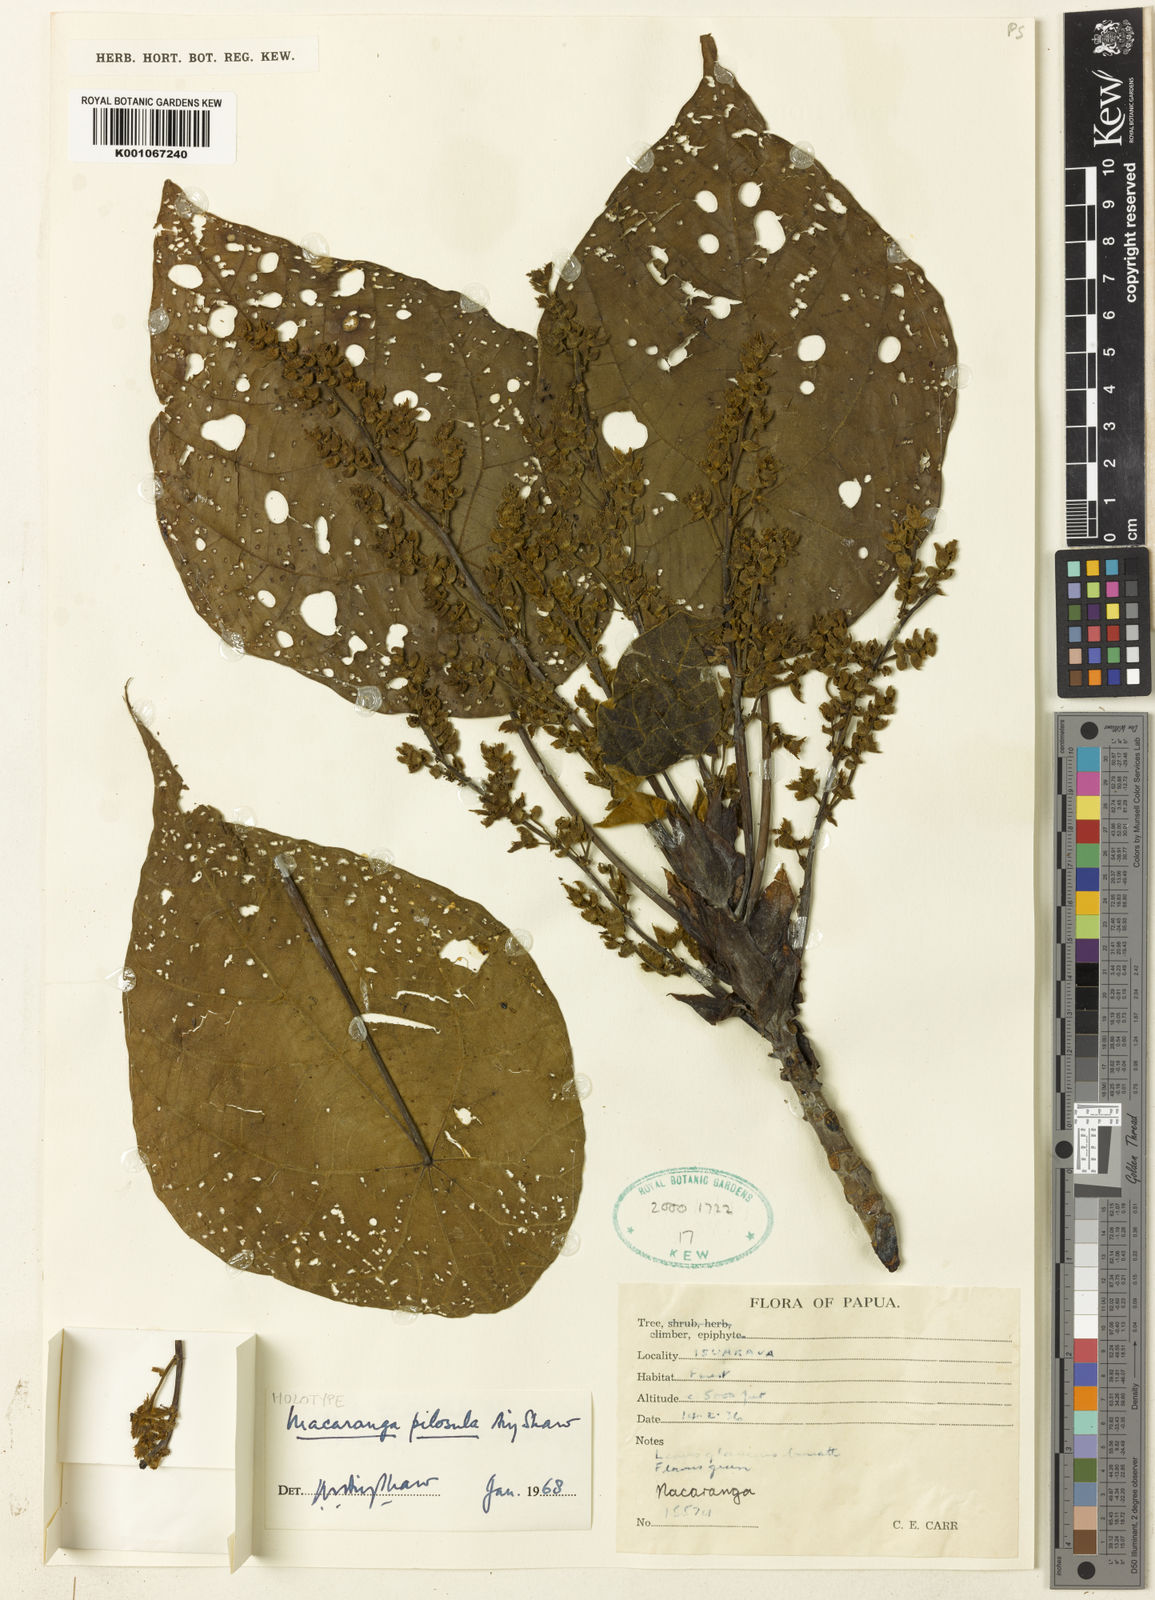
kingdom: Plantae
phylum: Tracheophyta
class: Magnoliopsida
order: Malpighiales
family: Euphorbiaceae
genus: Macaranga
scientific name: Macaranga pilosula
